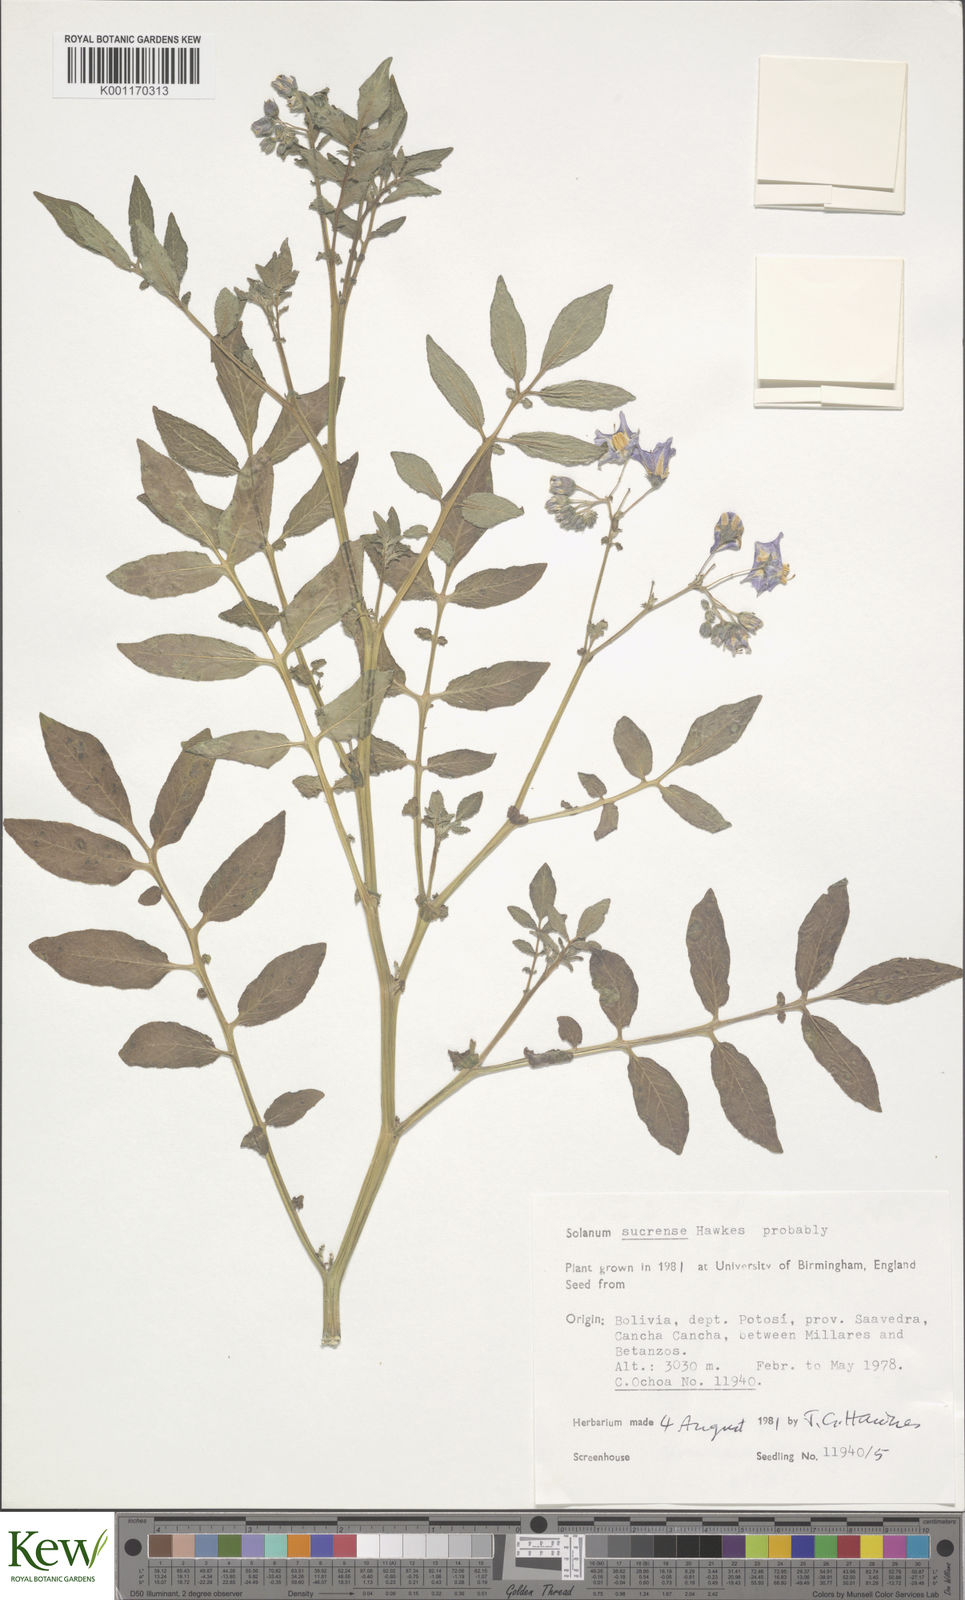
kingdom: Plantae
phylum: Tracheophyta
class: Magnoliopsida
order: Solanales
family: Solanaceae
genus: Solanum
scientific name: Solanum brevicaule
